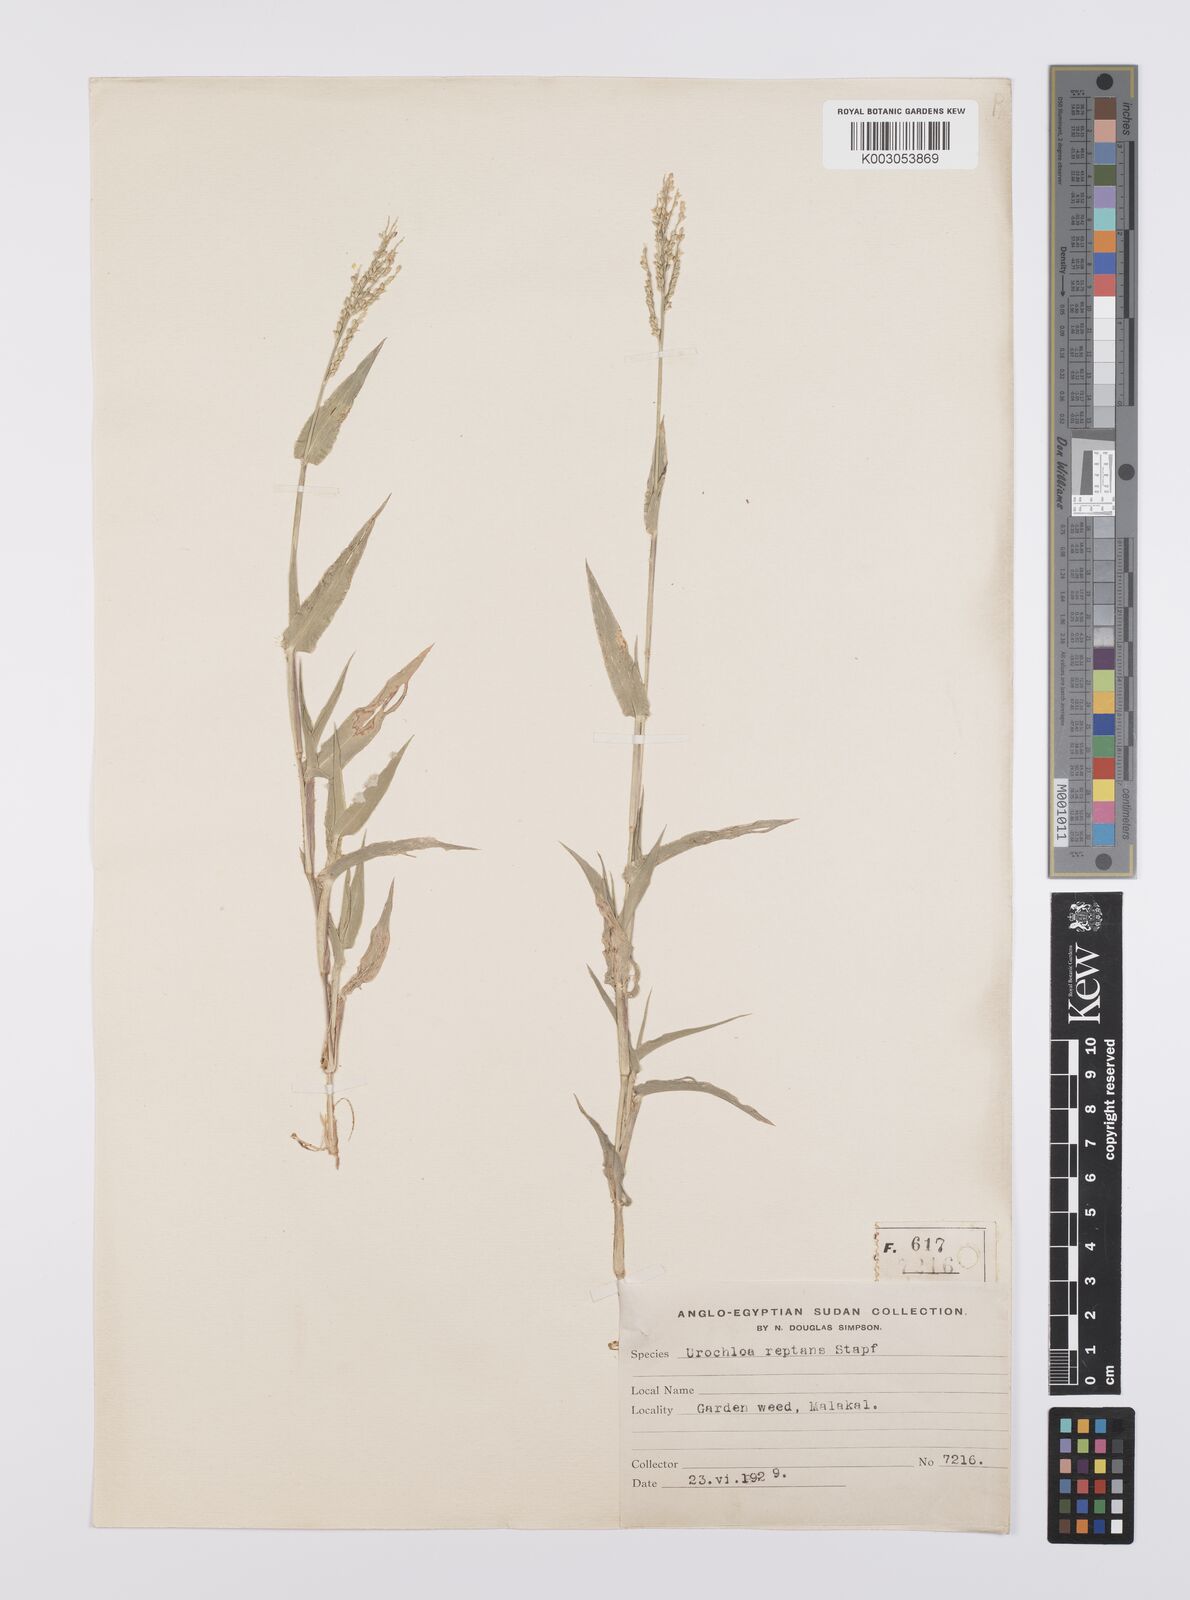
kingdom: Plantae
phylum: Tracheophyta
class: Liliopsida
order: Poales
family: Poaceae
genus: Urochloa
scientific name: Urochloa reptans
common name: Sprawling signalgrass
